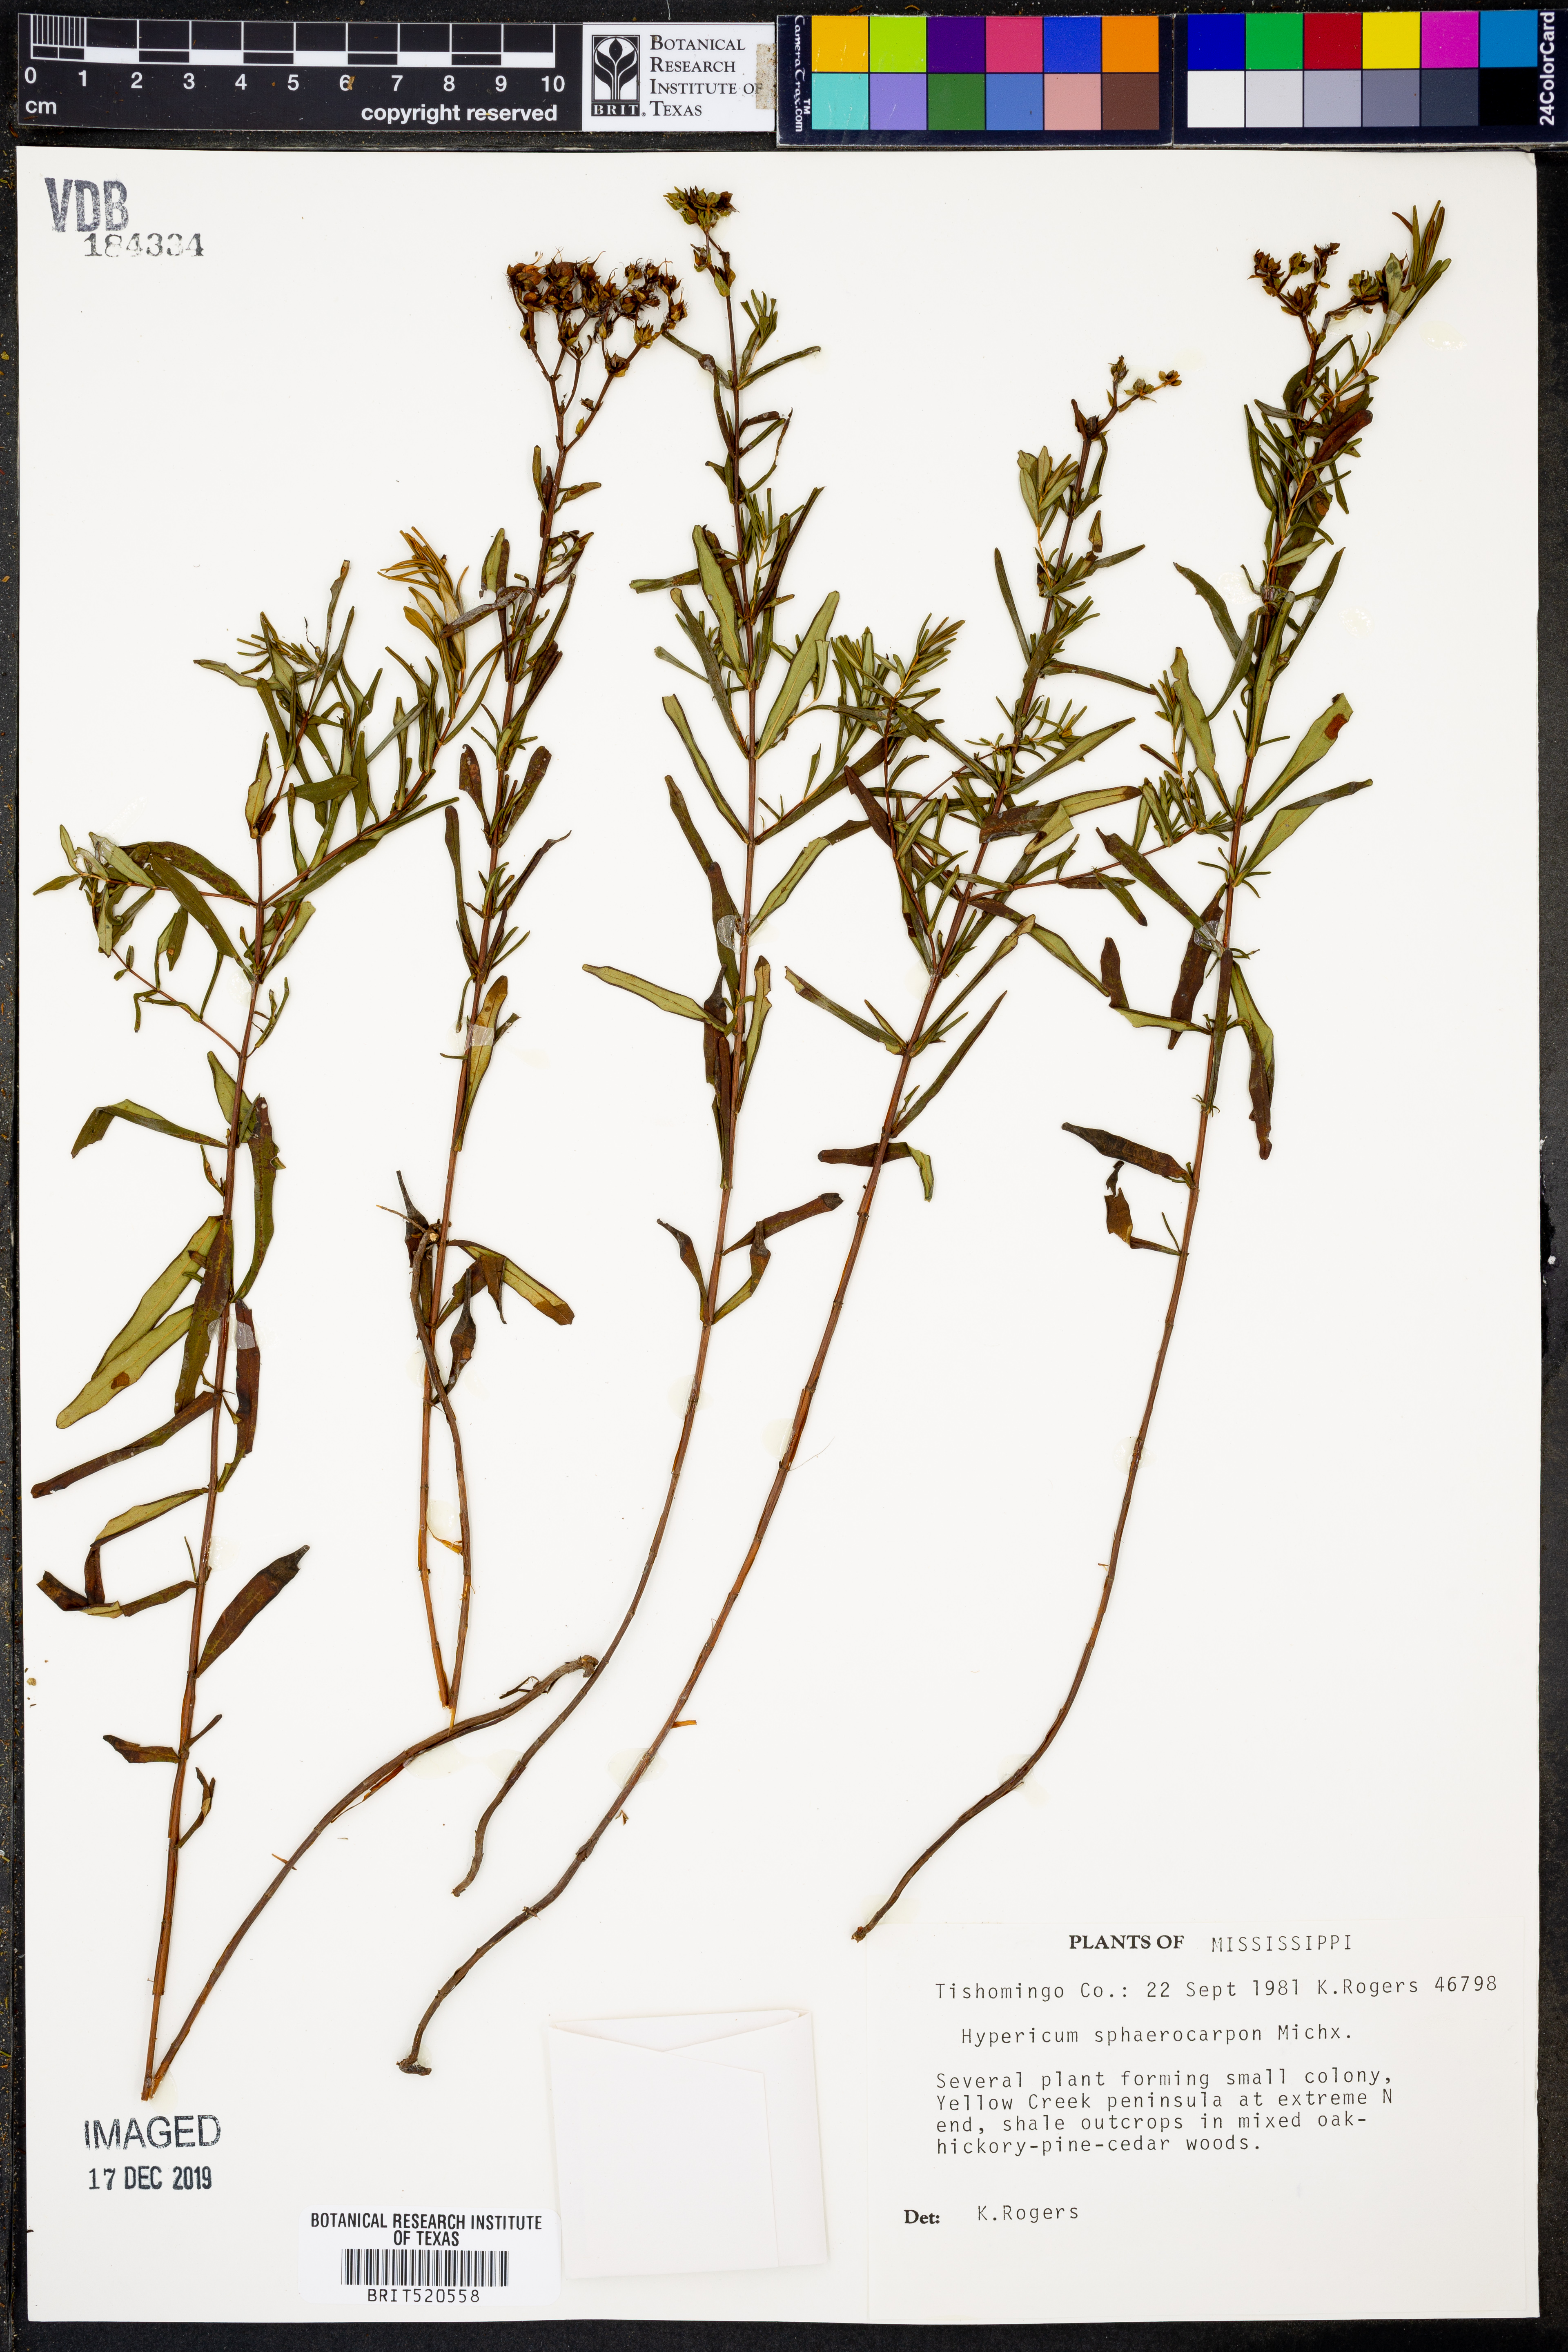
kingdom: Plantae
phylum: Tracheophyta
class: Magnoliopsida
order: Malpighiales
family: Hypericaceae
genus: Hypericum
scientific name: Hypericum sphaerocarpum
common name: Round-fruited st. john's-wort
